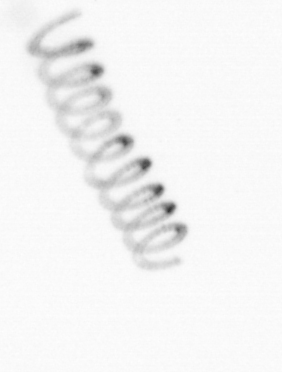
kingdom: Chromista
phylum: Ochrophyta
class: Bacillariophyceae
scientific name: Bacillariophyceae
